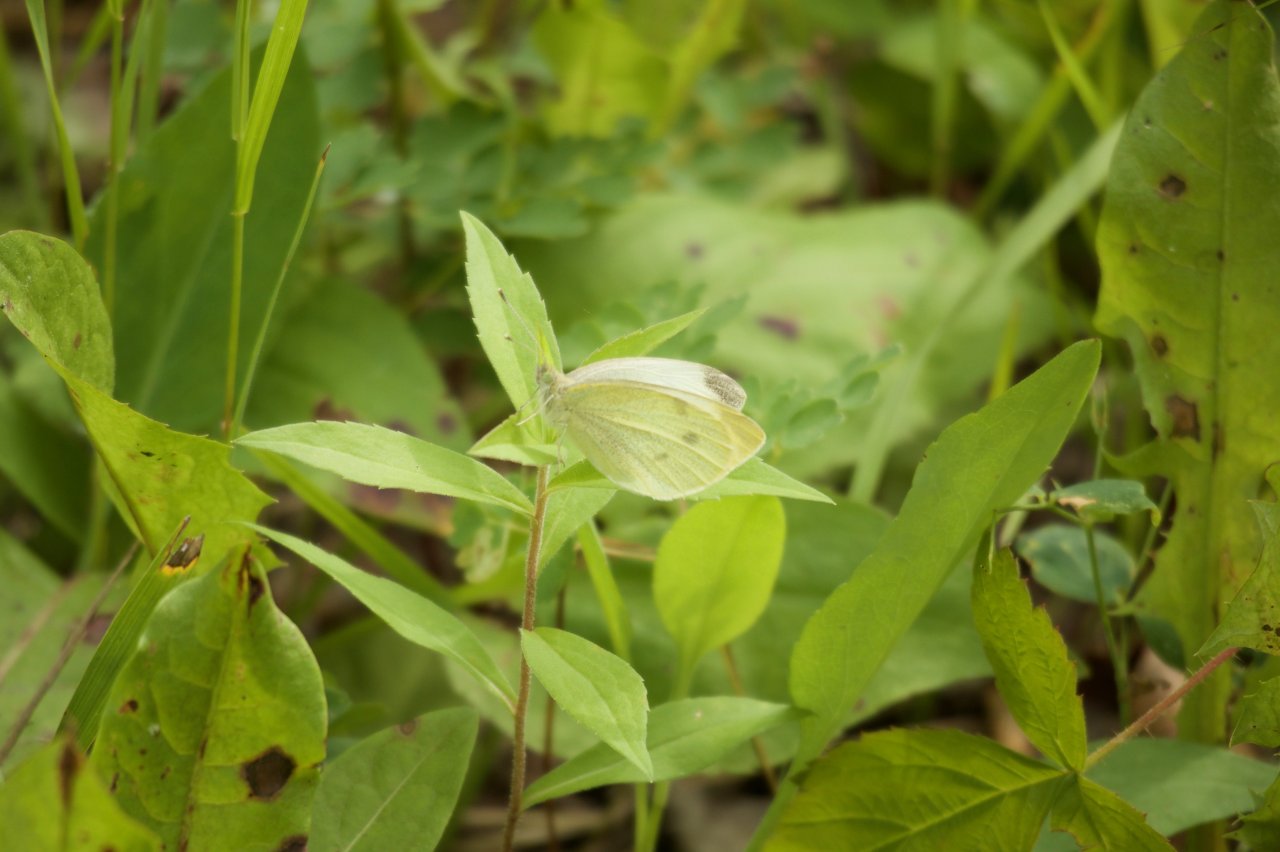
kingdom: Animalia
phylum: Arthropoda
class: Insecta
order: Lepidoptera
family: Pieridae
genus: Pieris
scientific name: Pieris rapae
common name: Cabbage White
